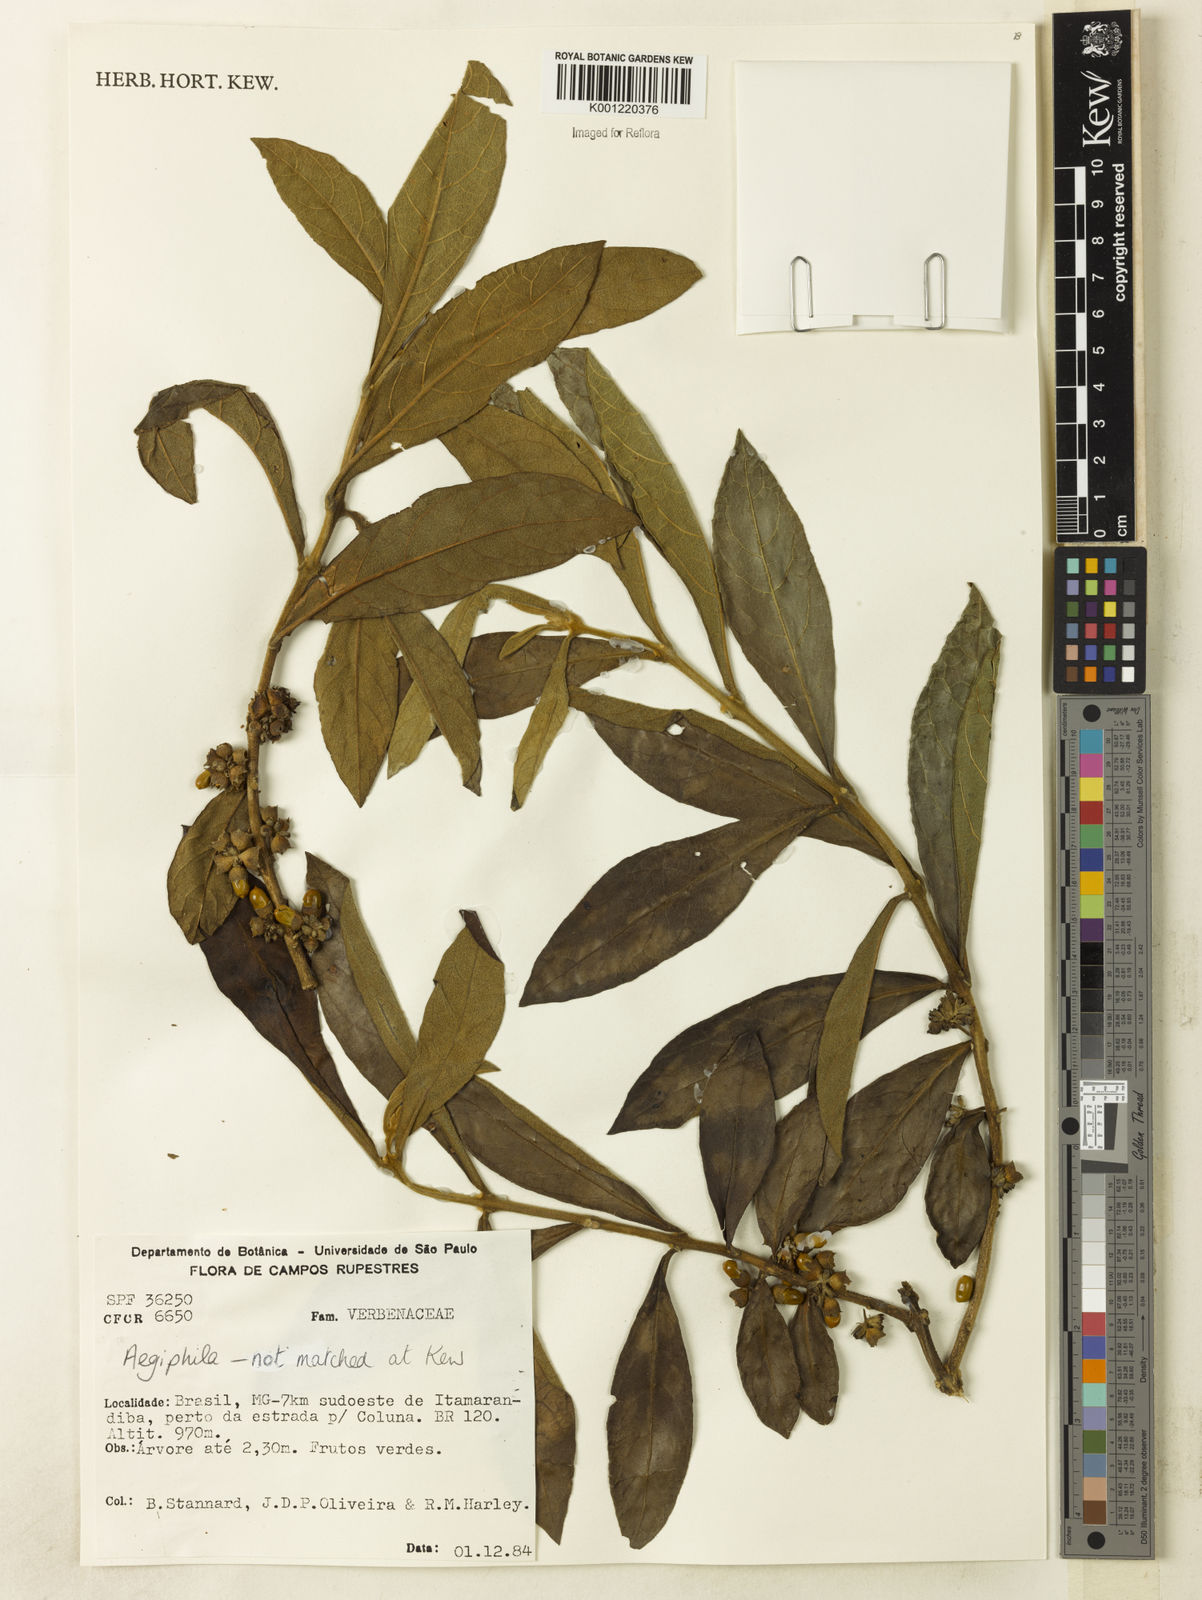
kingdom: Plantae
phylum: Tracheophyta
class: Magnoliopsida
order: Lamiales
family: Lamiaceae
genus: Aegiphila
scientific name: Aegiphila
